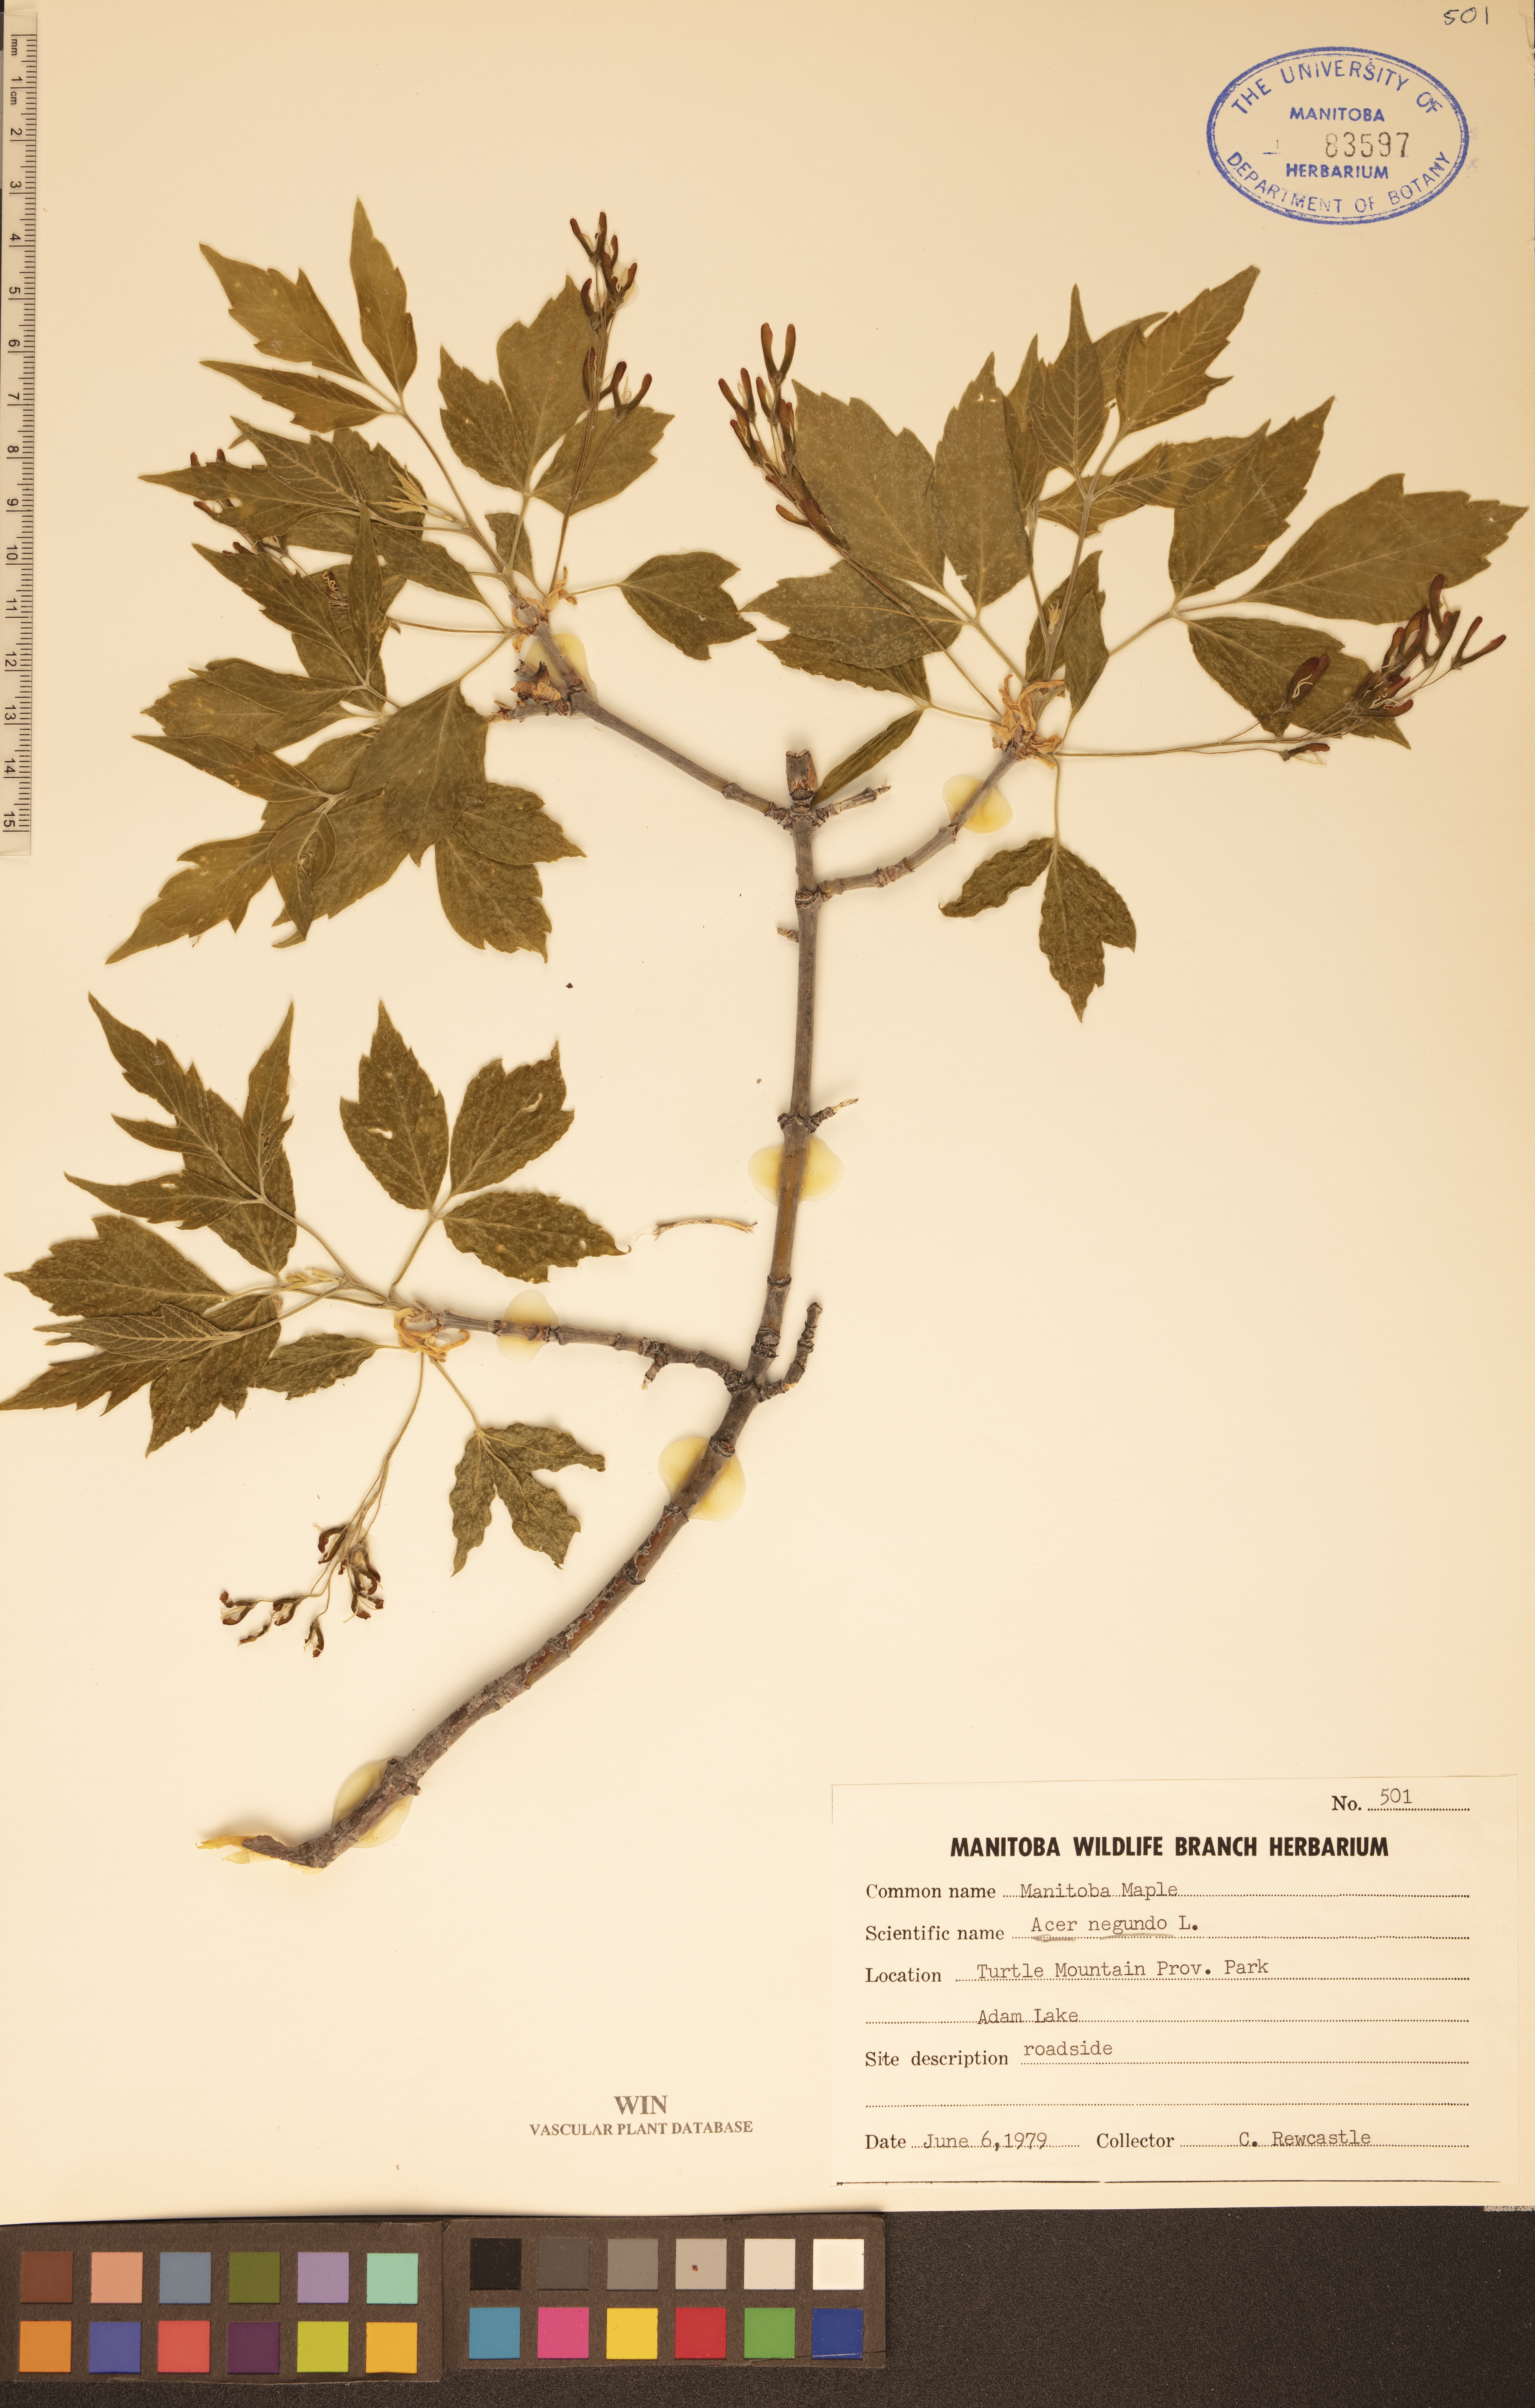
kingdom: Plantae
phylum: Tracheophyta
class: Magnoliopsida
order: Sapindales
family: Sapindaceae
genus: Acer
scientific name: Acer negundo
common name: Ashleaf maple
